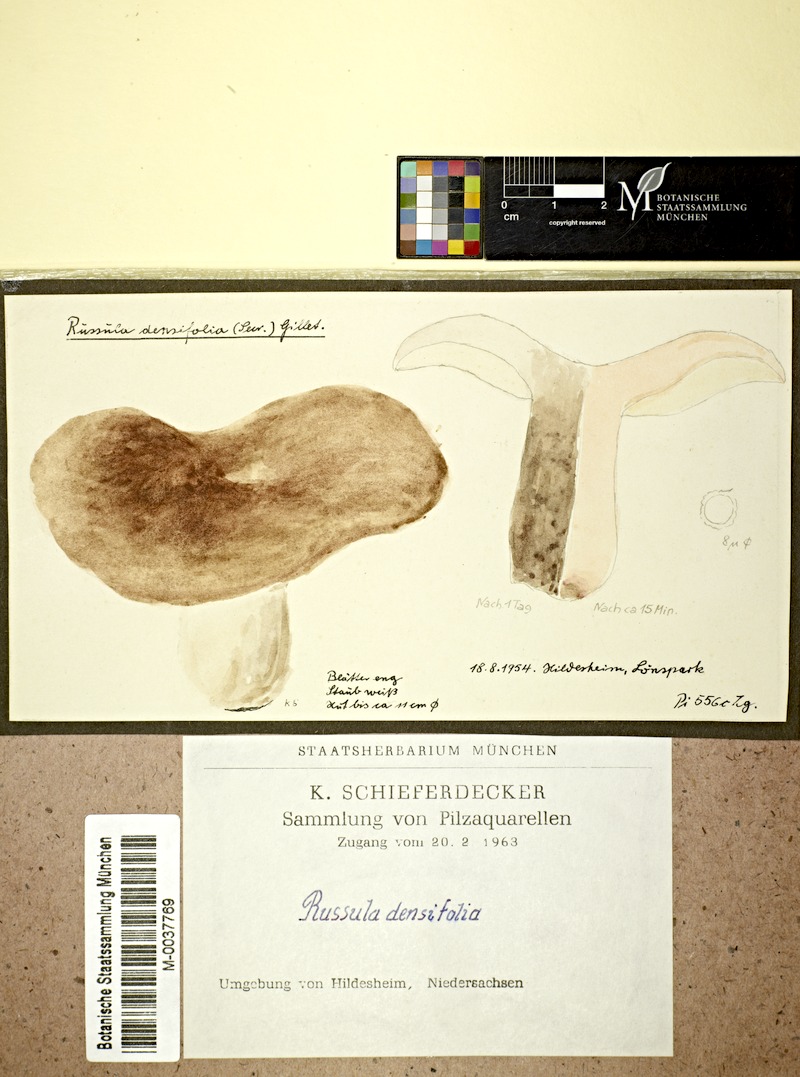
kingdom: Fungi
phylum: Basidiomycota
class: Agaricomycetes
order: Russulales
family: Russulaceae
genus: Russula
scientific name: Russula densifolia
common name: Crowded brittlegill
